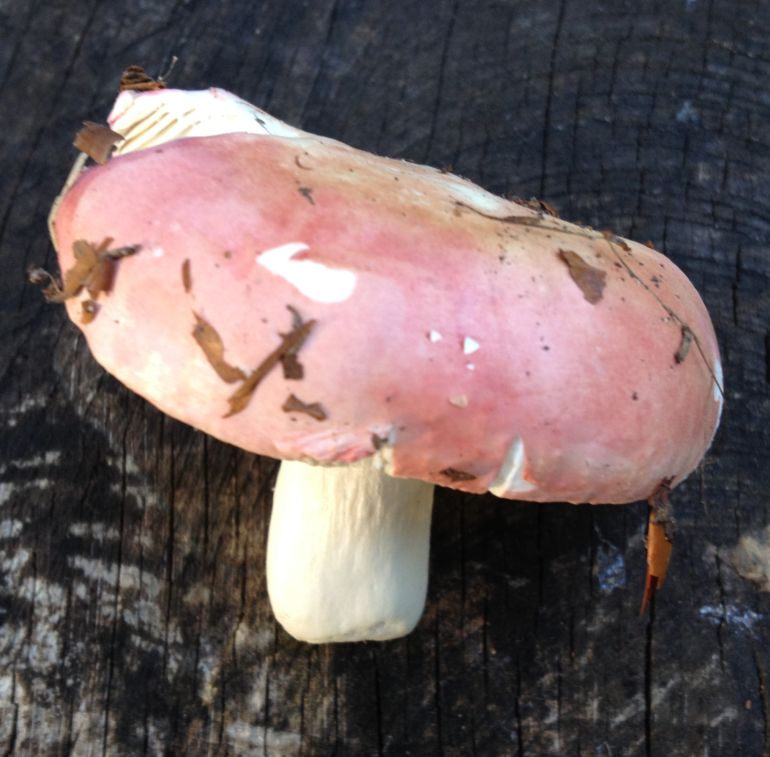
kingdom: Fungi
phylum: Basidiomycota
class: Agaricomycetes
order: Russulales
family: Russulaceae
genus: Russula
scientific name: Russula rosea
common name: fastkødet skørhat
